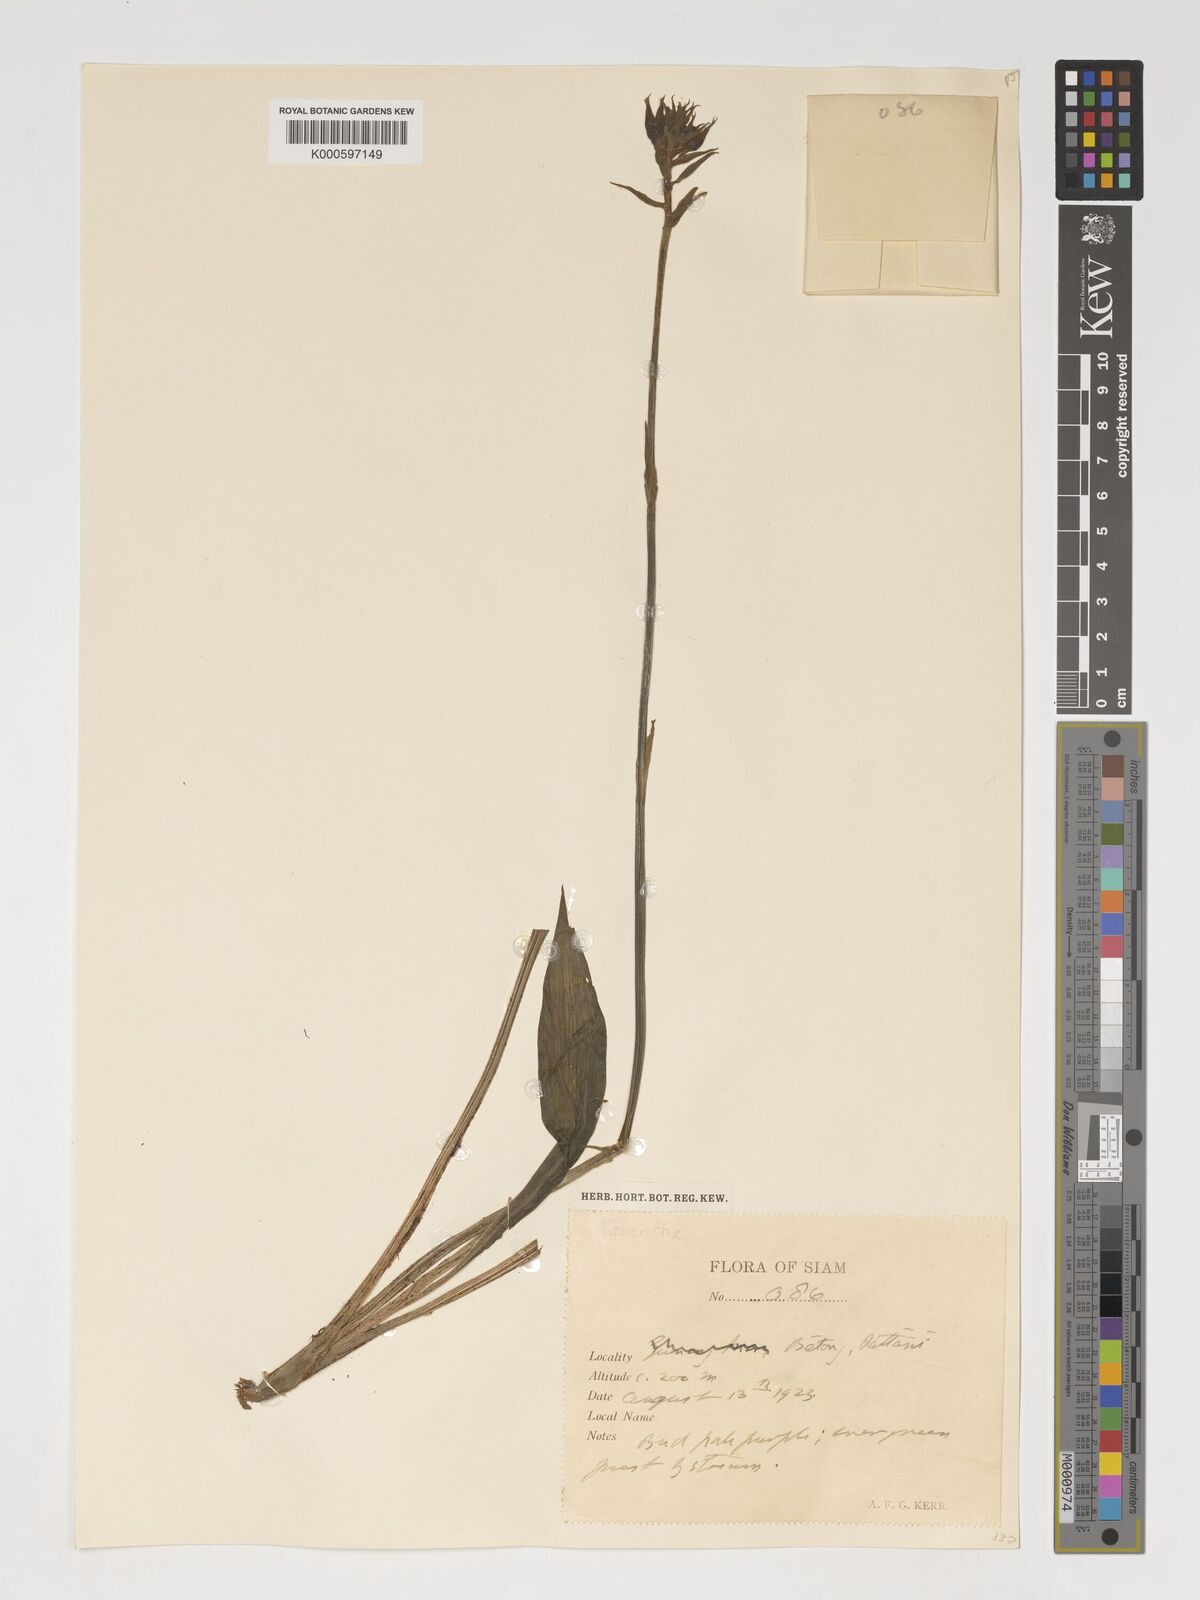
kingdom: Plantae
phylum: Tracheophyta
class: Liliopsida
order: Asparagales
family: Orchidaceae
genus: Calanthe
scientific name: Calanthe
